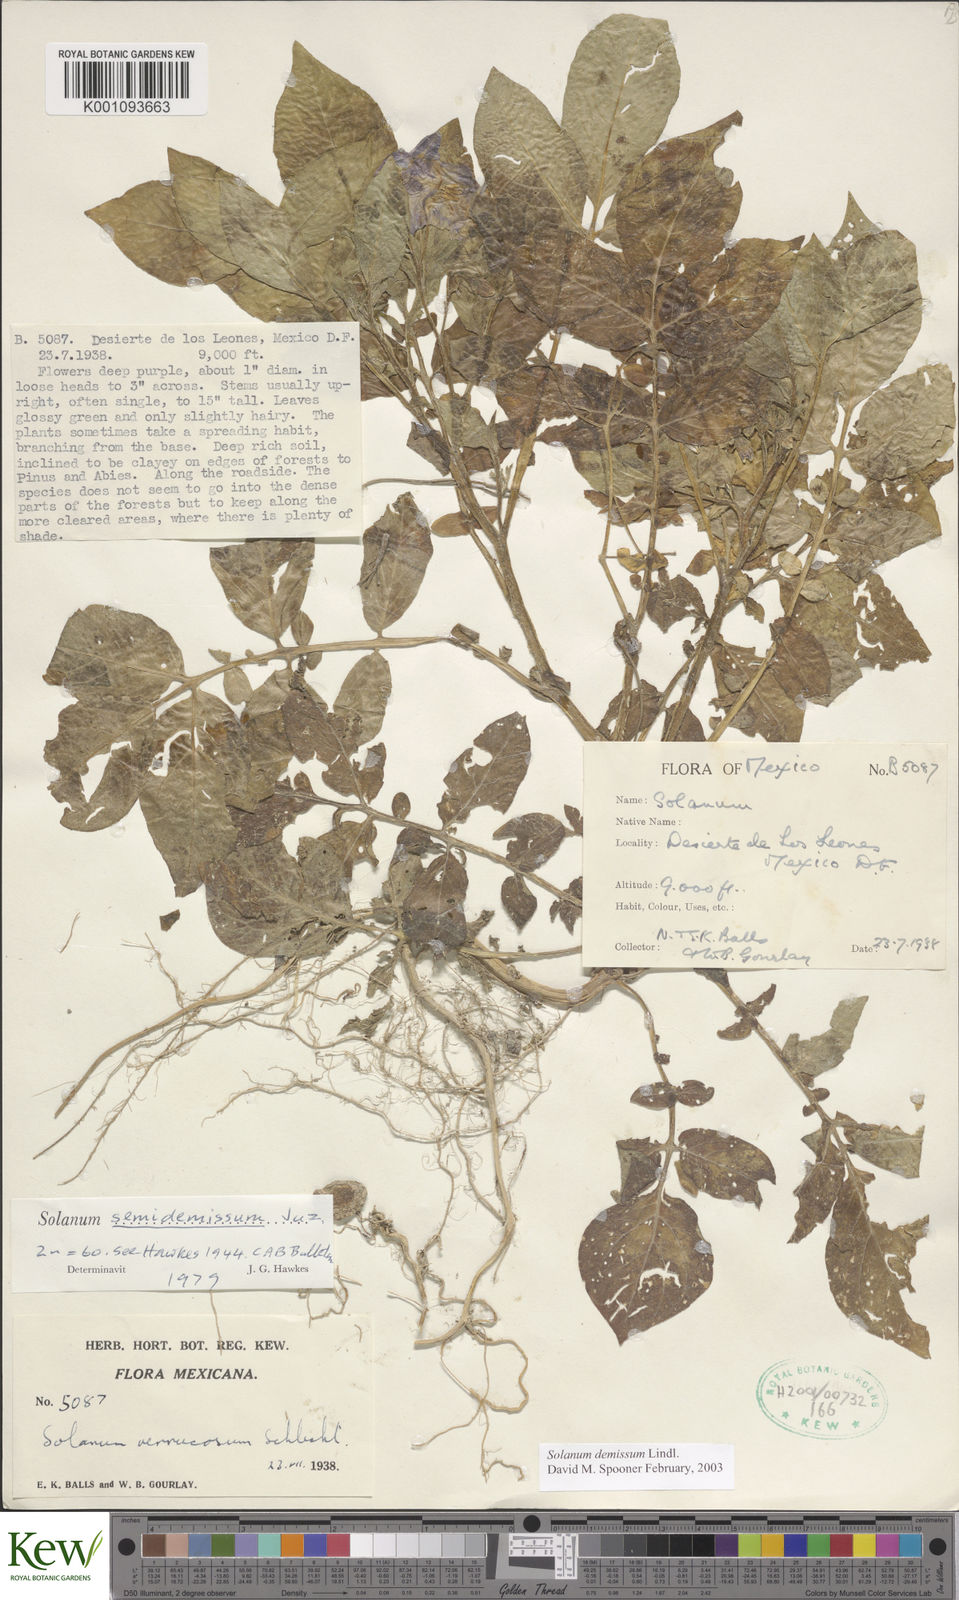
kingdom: Plantae
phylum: Tracheophyta
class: Magnoliopsida
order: Solanales
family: Solanaceae
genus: Solanum
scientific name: Solanum demissum
